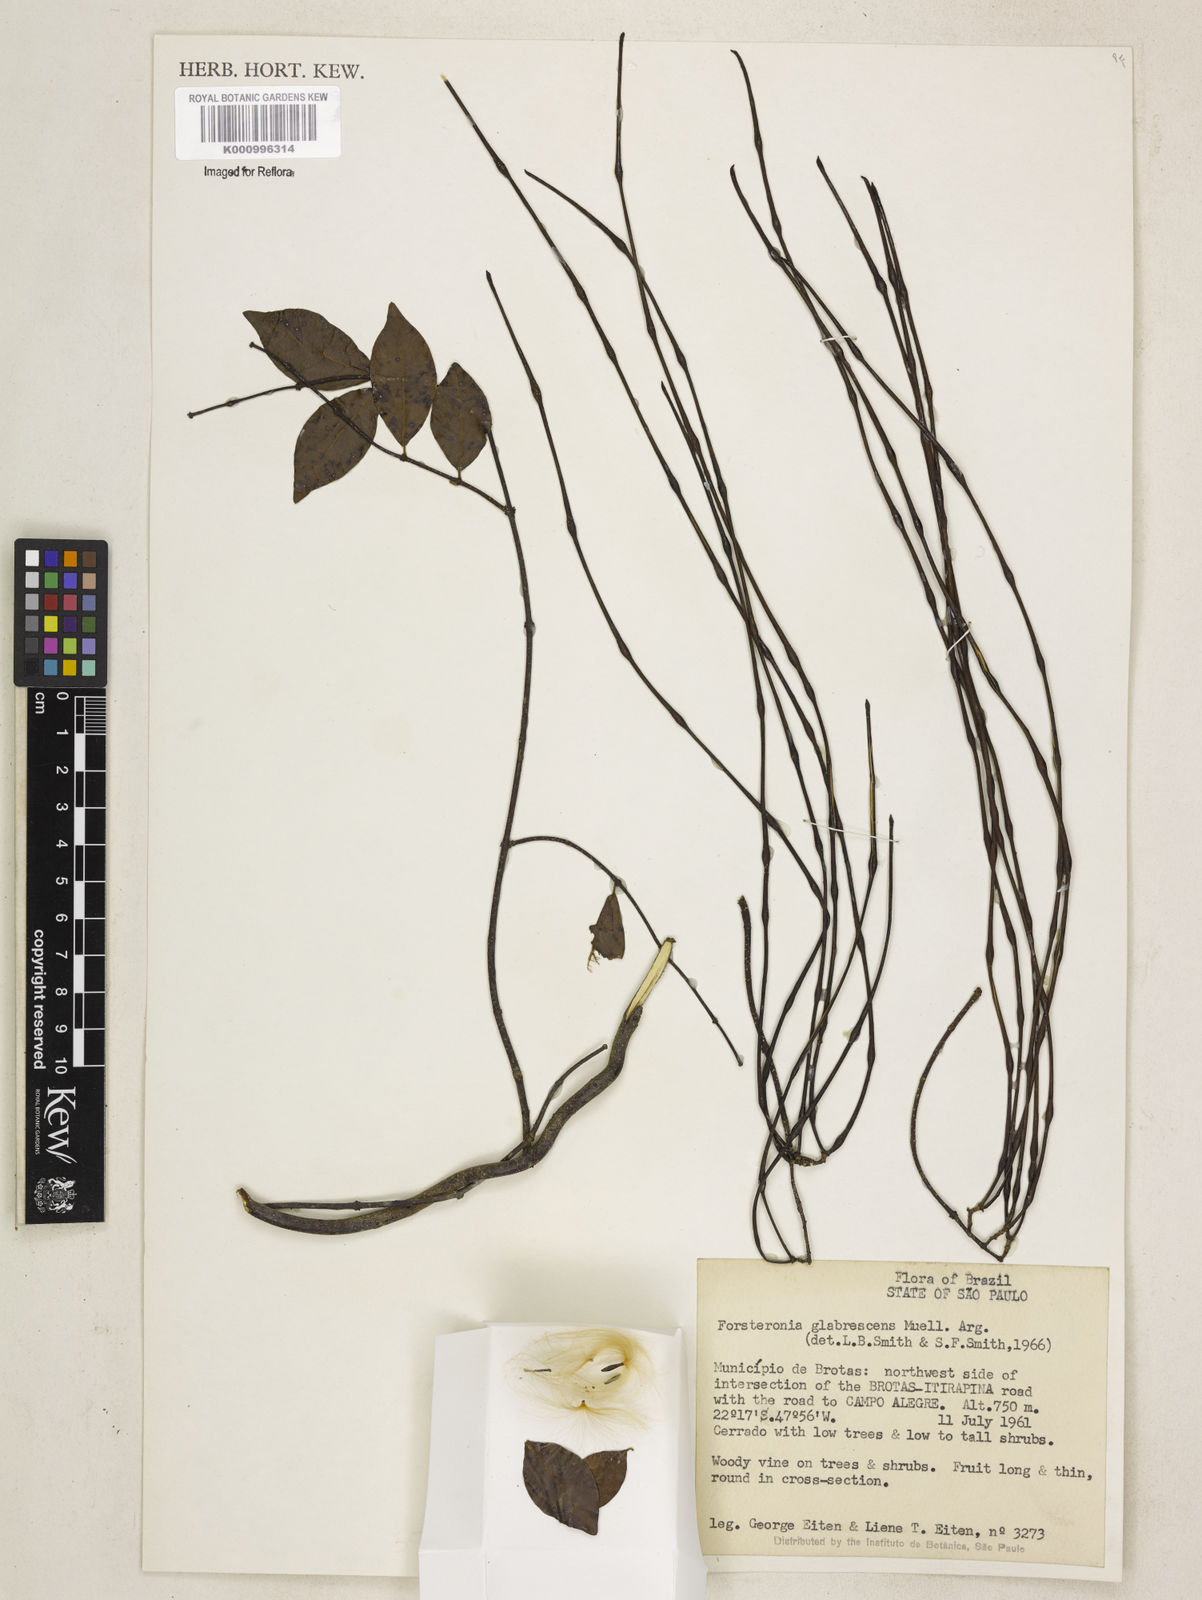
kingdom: Plantae
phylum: Tracheophyta
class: Magnoliopsida
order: Gentianales
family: Apocynaceae
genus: Forsteronia
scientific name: Forsteronia
